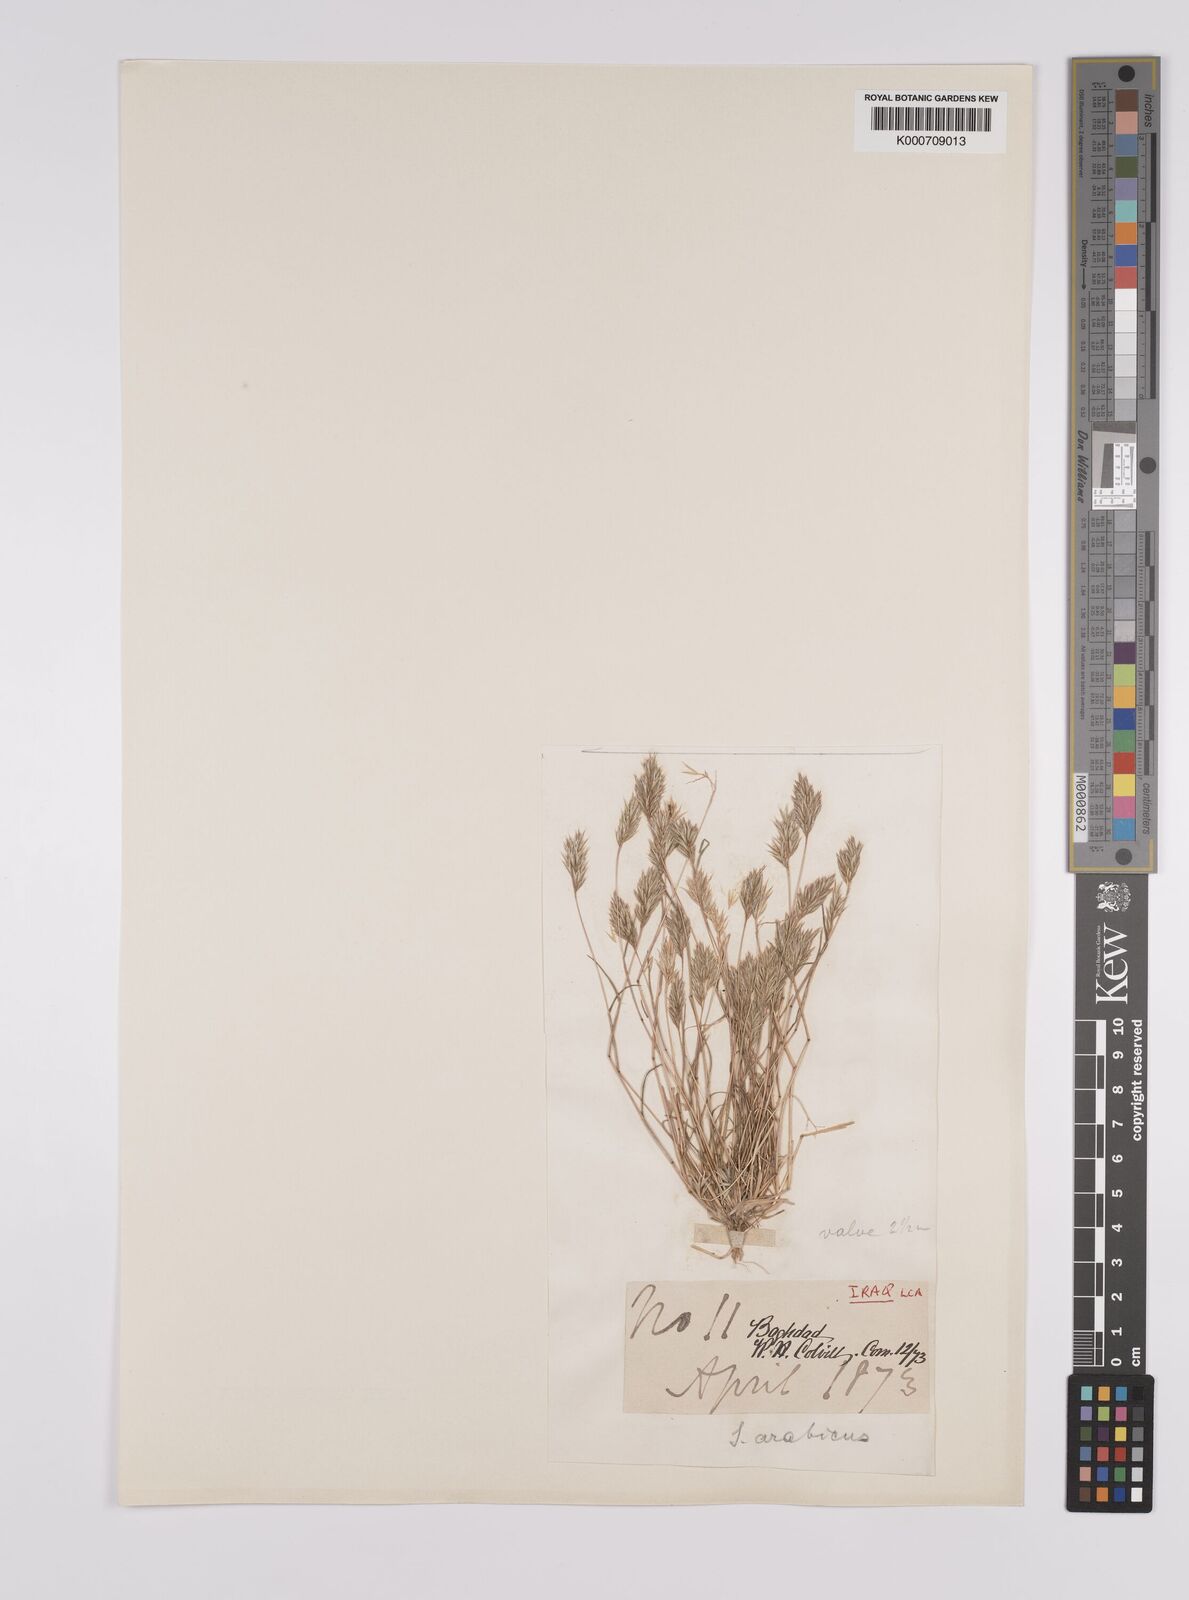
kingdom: Plantae
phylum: Tracheophyta
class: Liliopsida
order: Poales
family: Poaceae
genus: Schismus
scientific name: Schismus arabicus
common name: Arabian schismus
